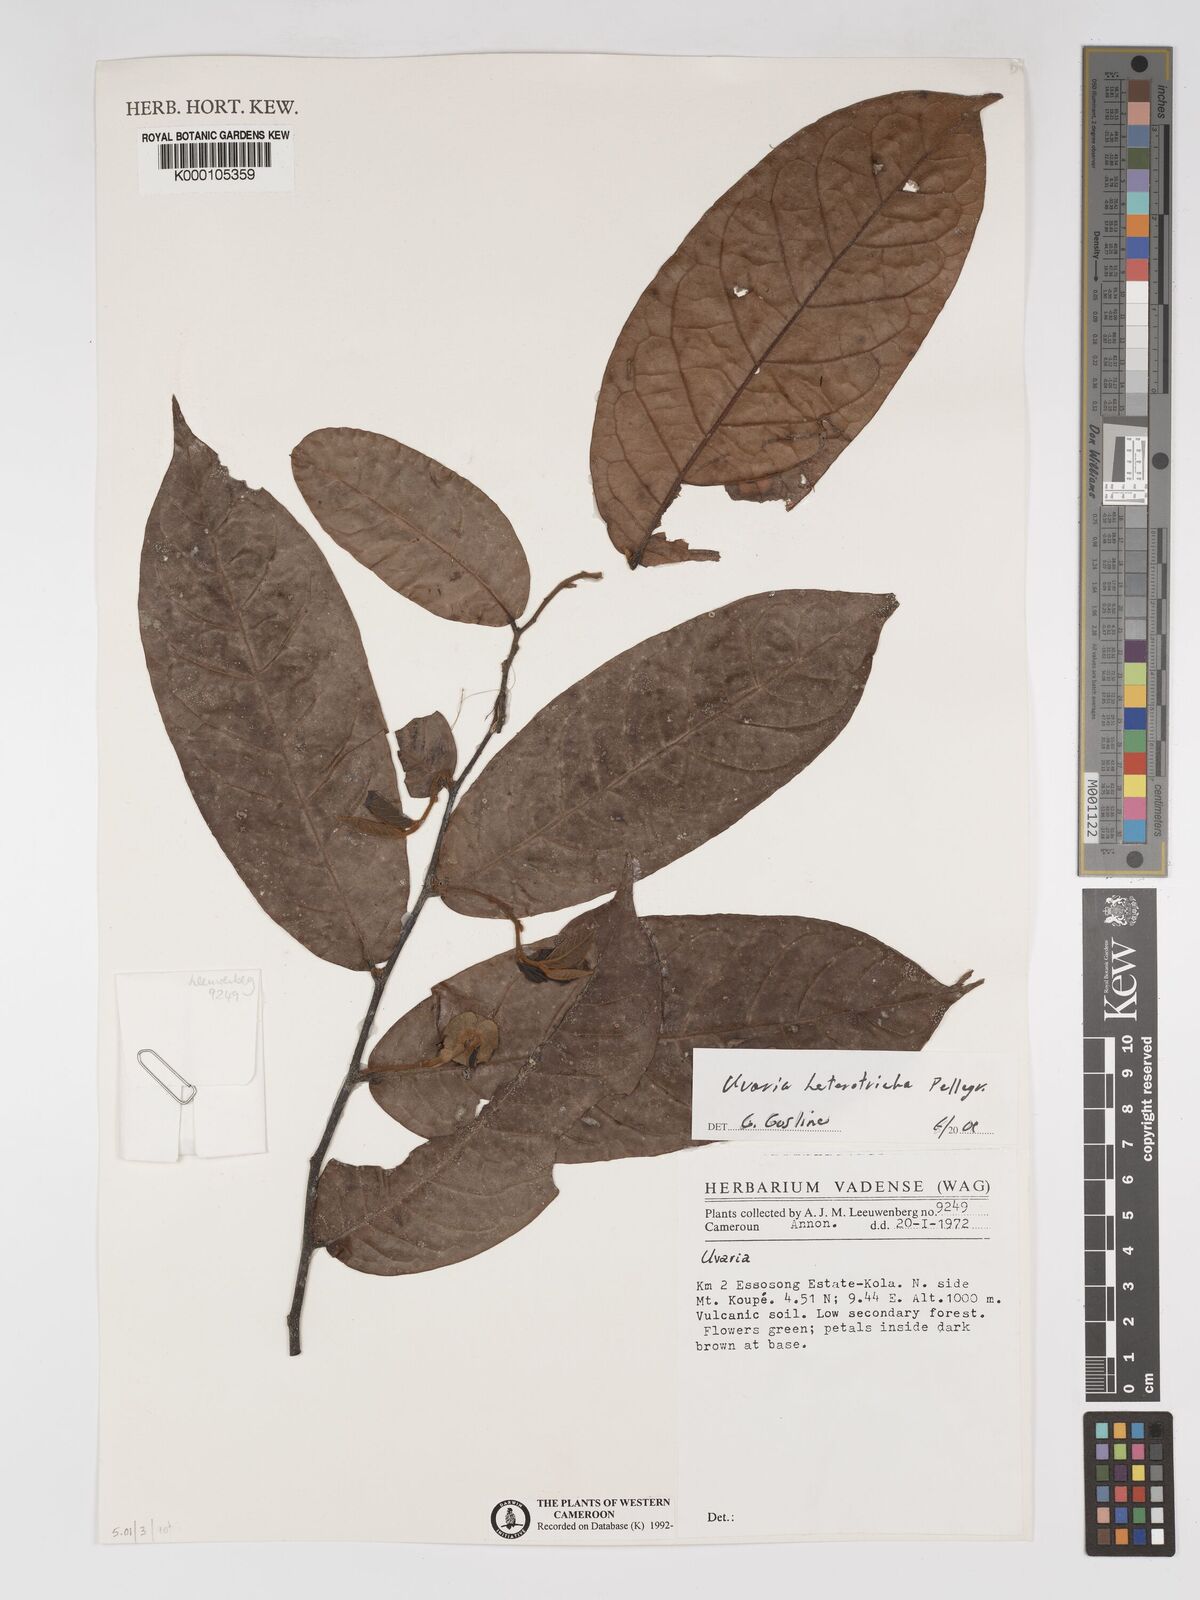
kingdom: Plantae
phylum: Tracheophyta
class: Magnoliopsida
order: Magnoliales
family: Annonaceae
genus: Uvaria
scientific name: Uvaria heterotricha
